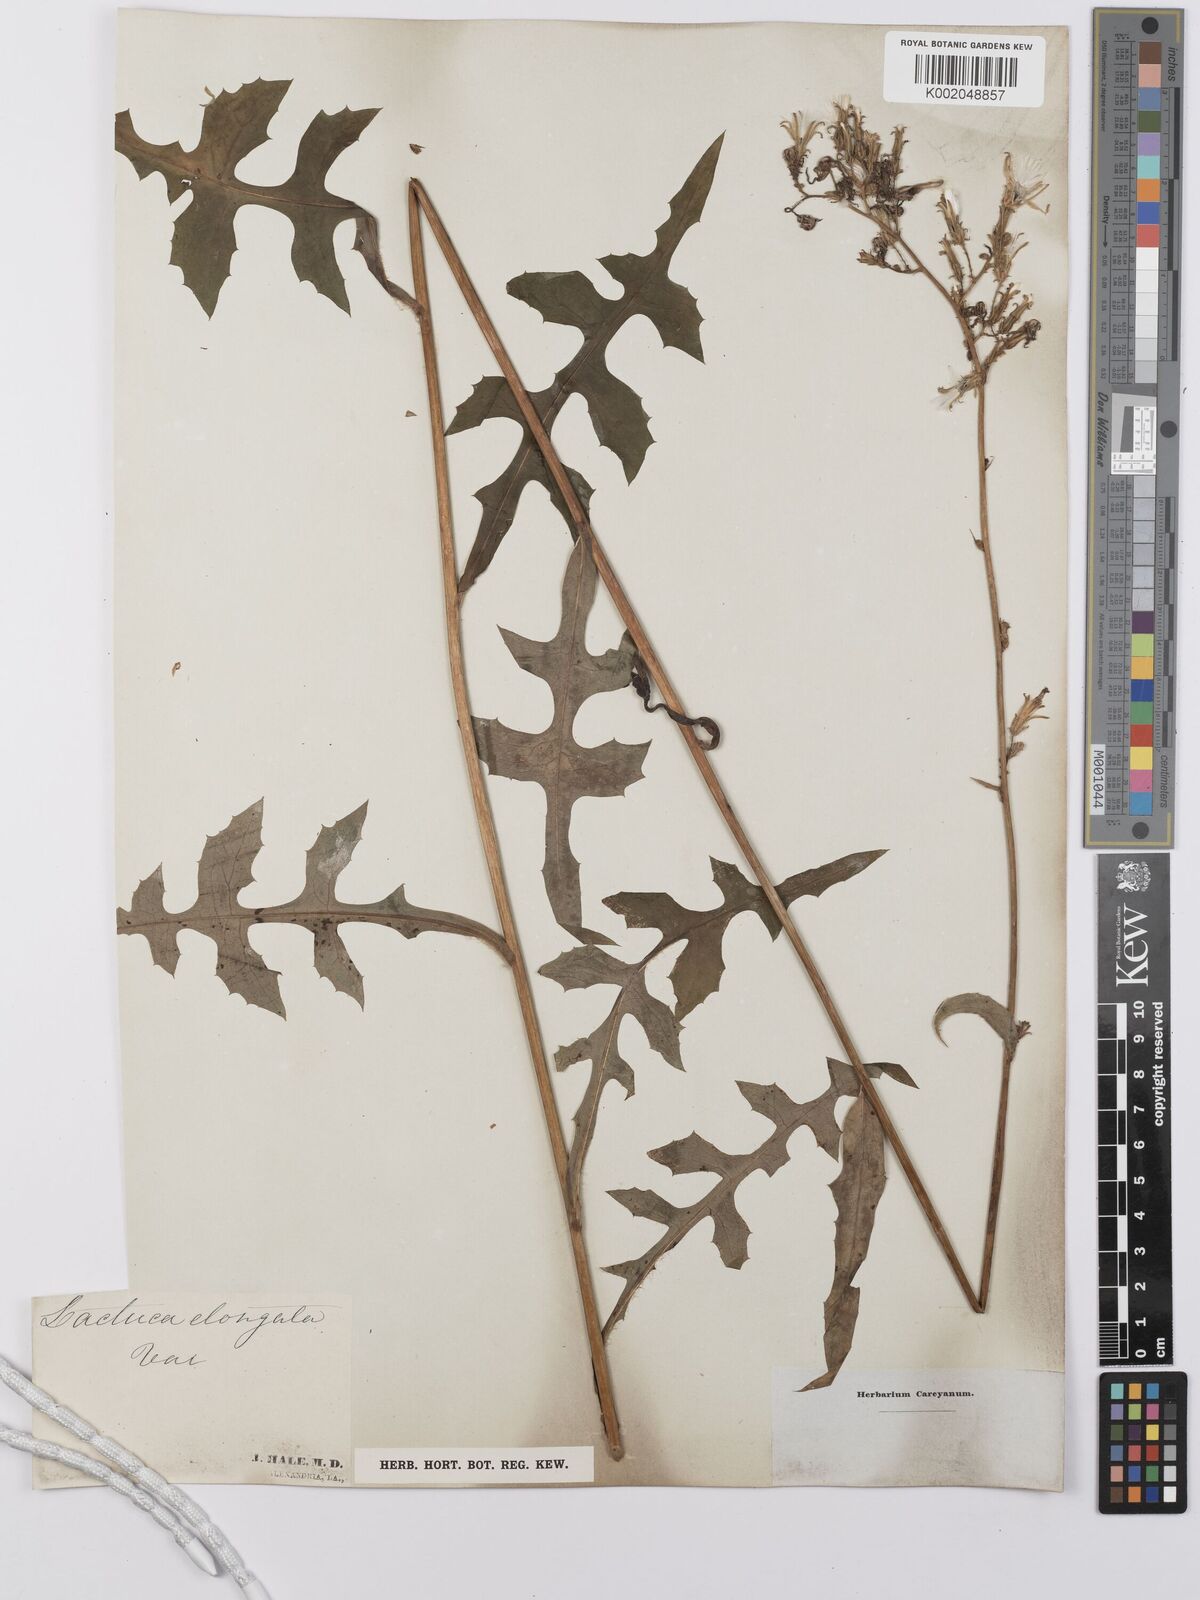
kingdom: Plantae
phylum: Tracheophyta
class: Magnoliopsida
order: Asterales
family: Asteraceae
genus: Lactuca
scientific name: Lactuca canadensis
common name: Canada lettuce
